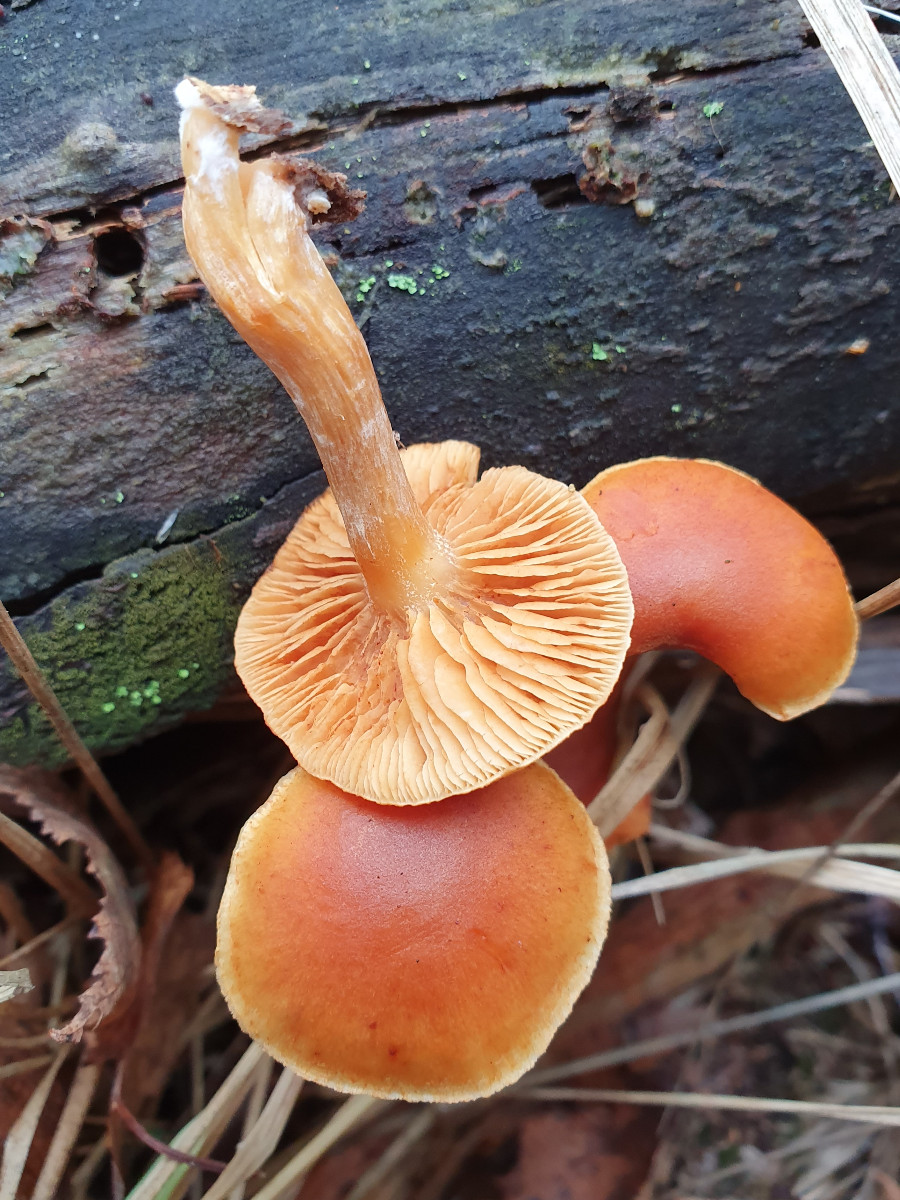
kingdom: Fungi
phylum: Basidiomycota
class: Agaricomycetes
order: Agaricales
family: Hymenogastraceae
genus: Gymnopilus
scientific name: Gymnopilus penetrans
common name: plettet flammehat
